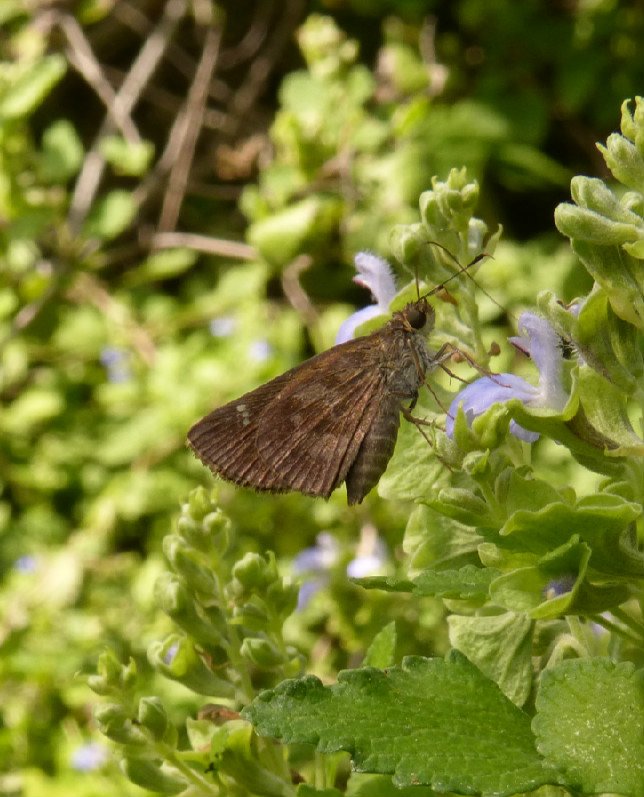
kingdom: Animalia
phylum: Arthropoda
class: Insecta
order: Lepidoptera
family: Hesperiidae
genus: Cymaenes
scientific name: Cymaenes odilia
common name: Fawn-spotted Skipper
